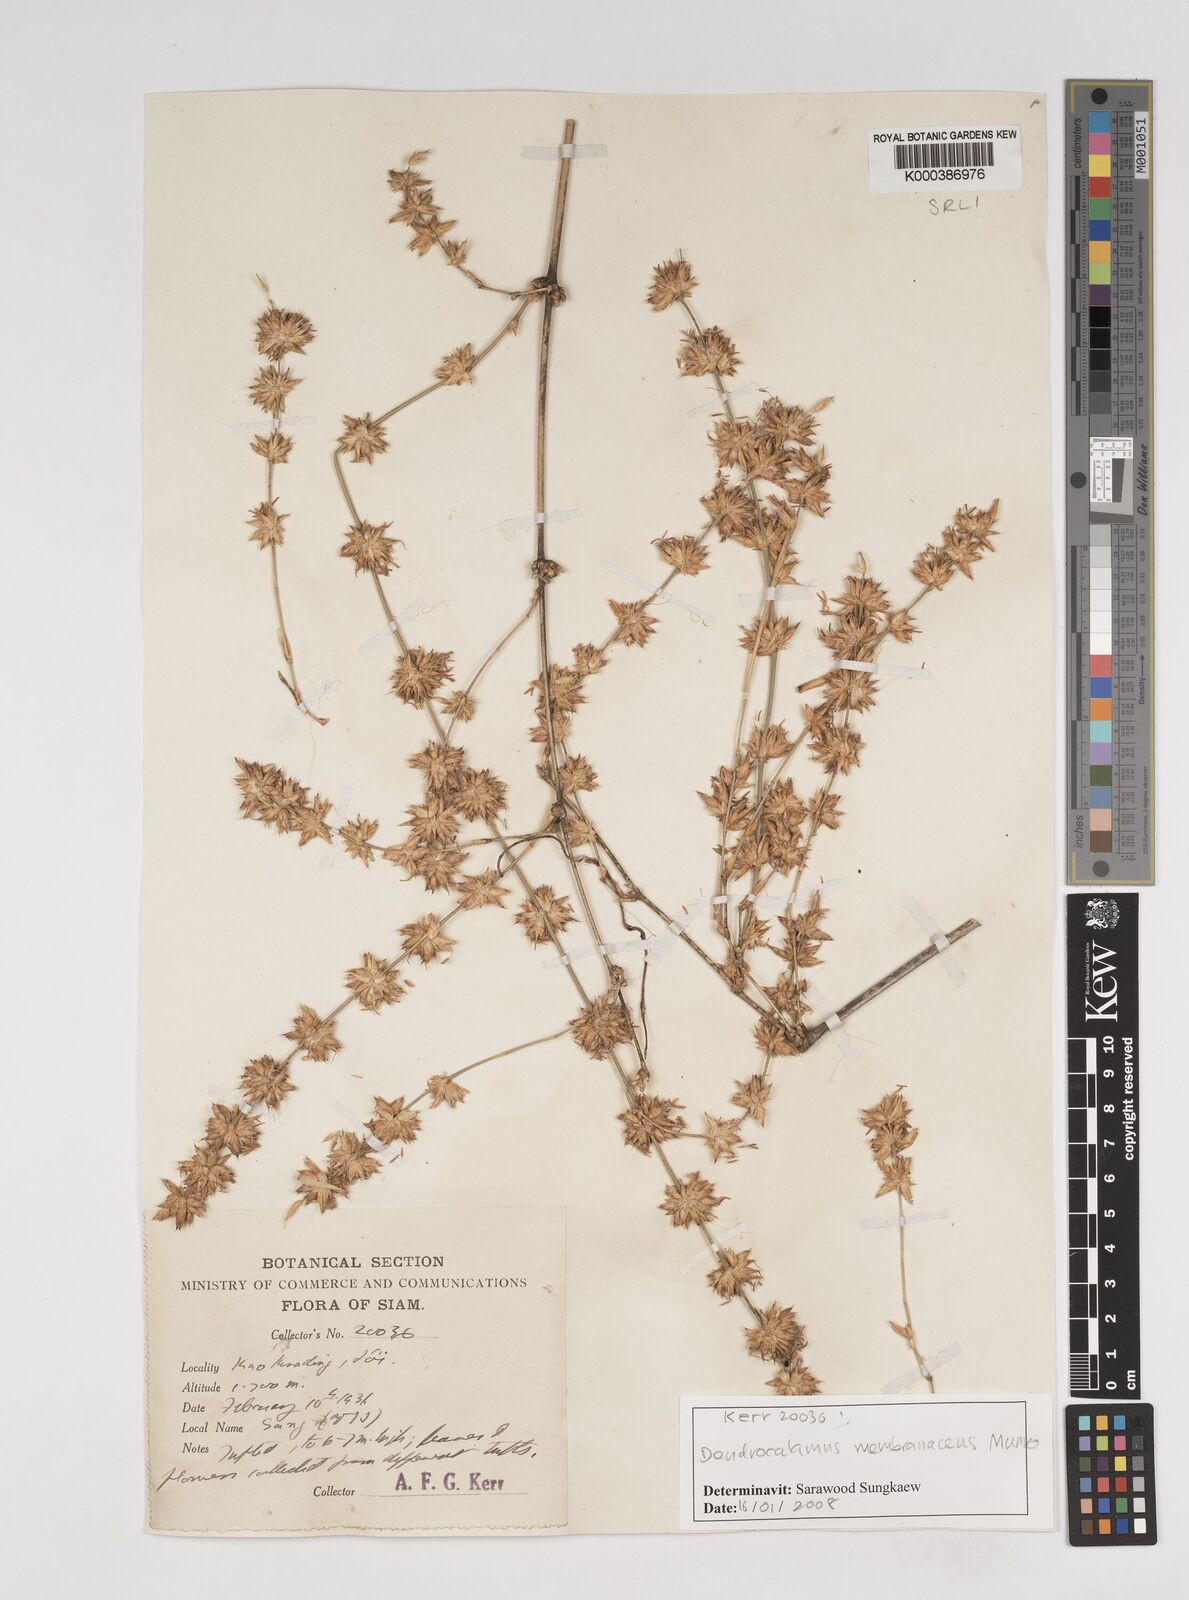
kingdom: Plantae
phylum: Tracheophyta
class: Liliopsida
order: Poales
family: Poaceae
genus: Dendrocalamus
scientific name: Dendrocalamus membranaceus
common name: White bamboo
